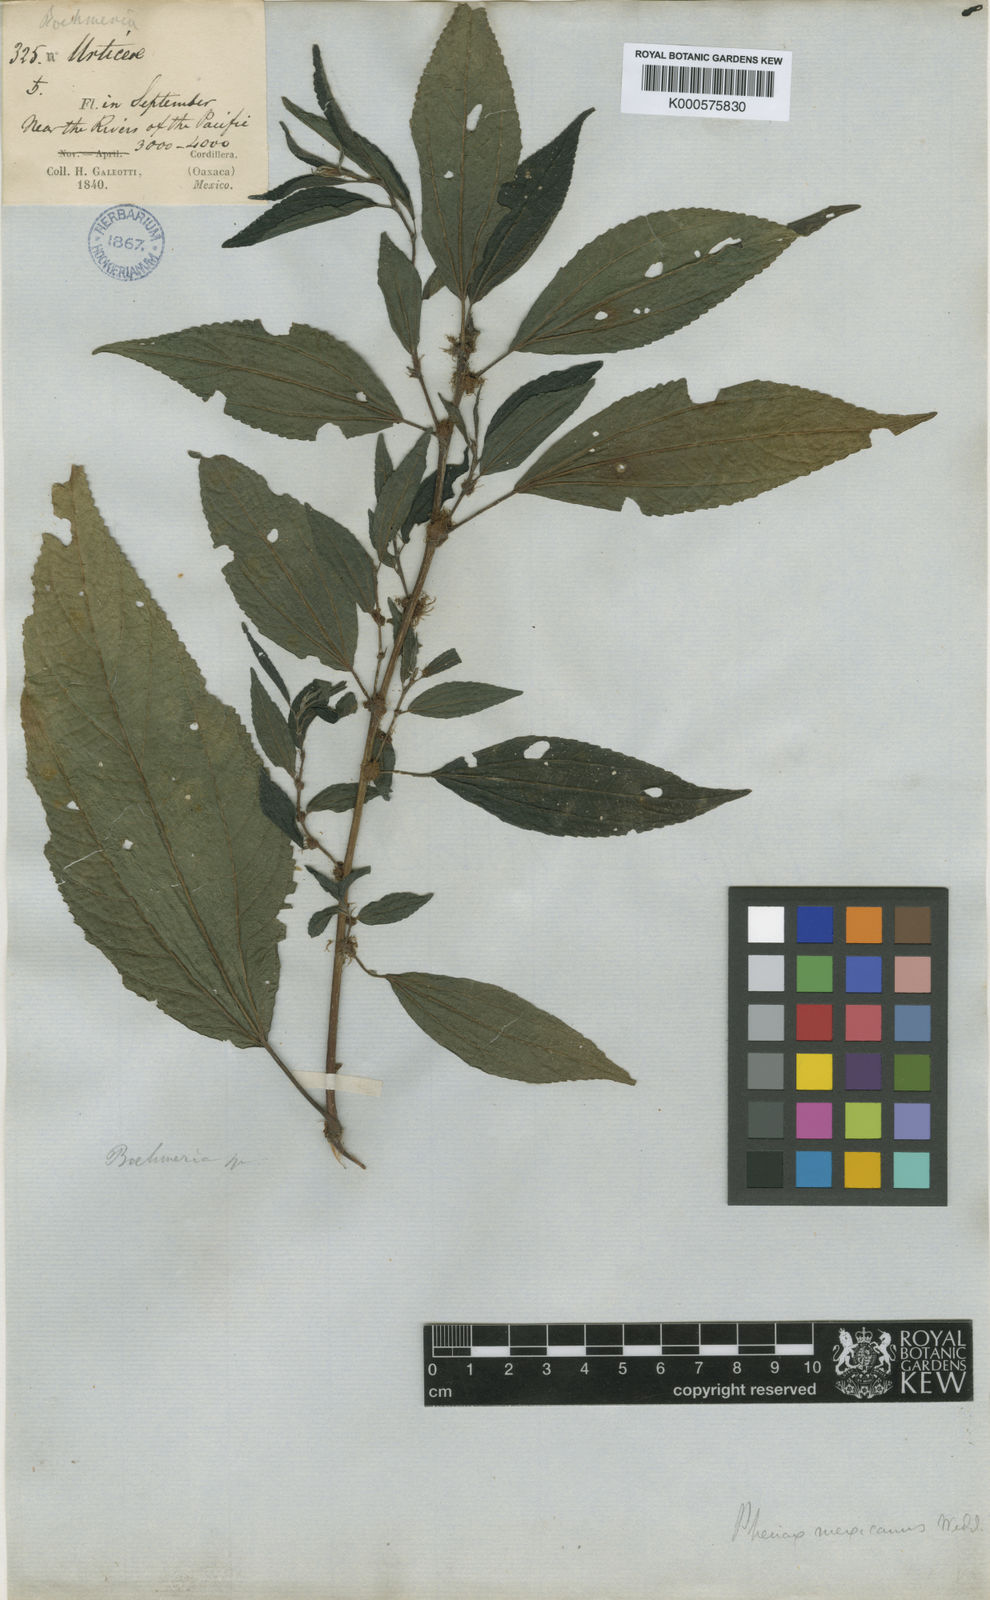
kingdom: Plantae
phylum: Tracheophyta
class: Magnoliopsida
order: Rosales
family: Urticaceae
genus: Phenax
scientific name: Phenax mexicanus
